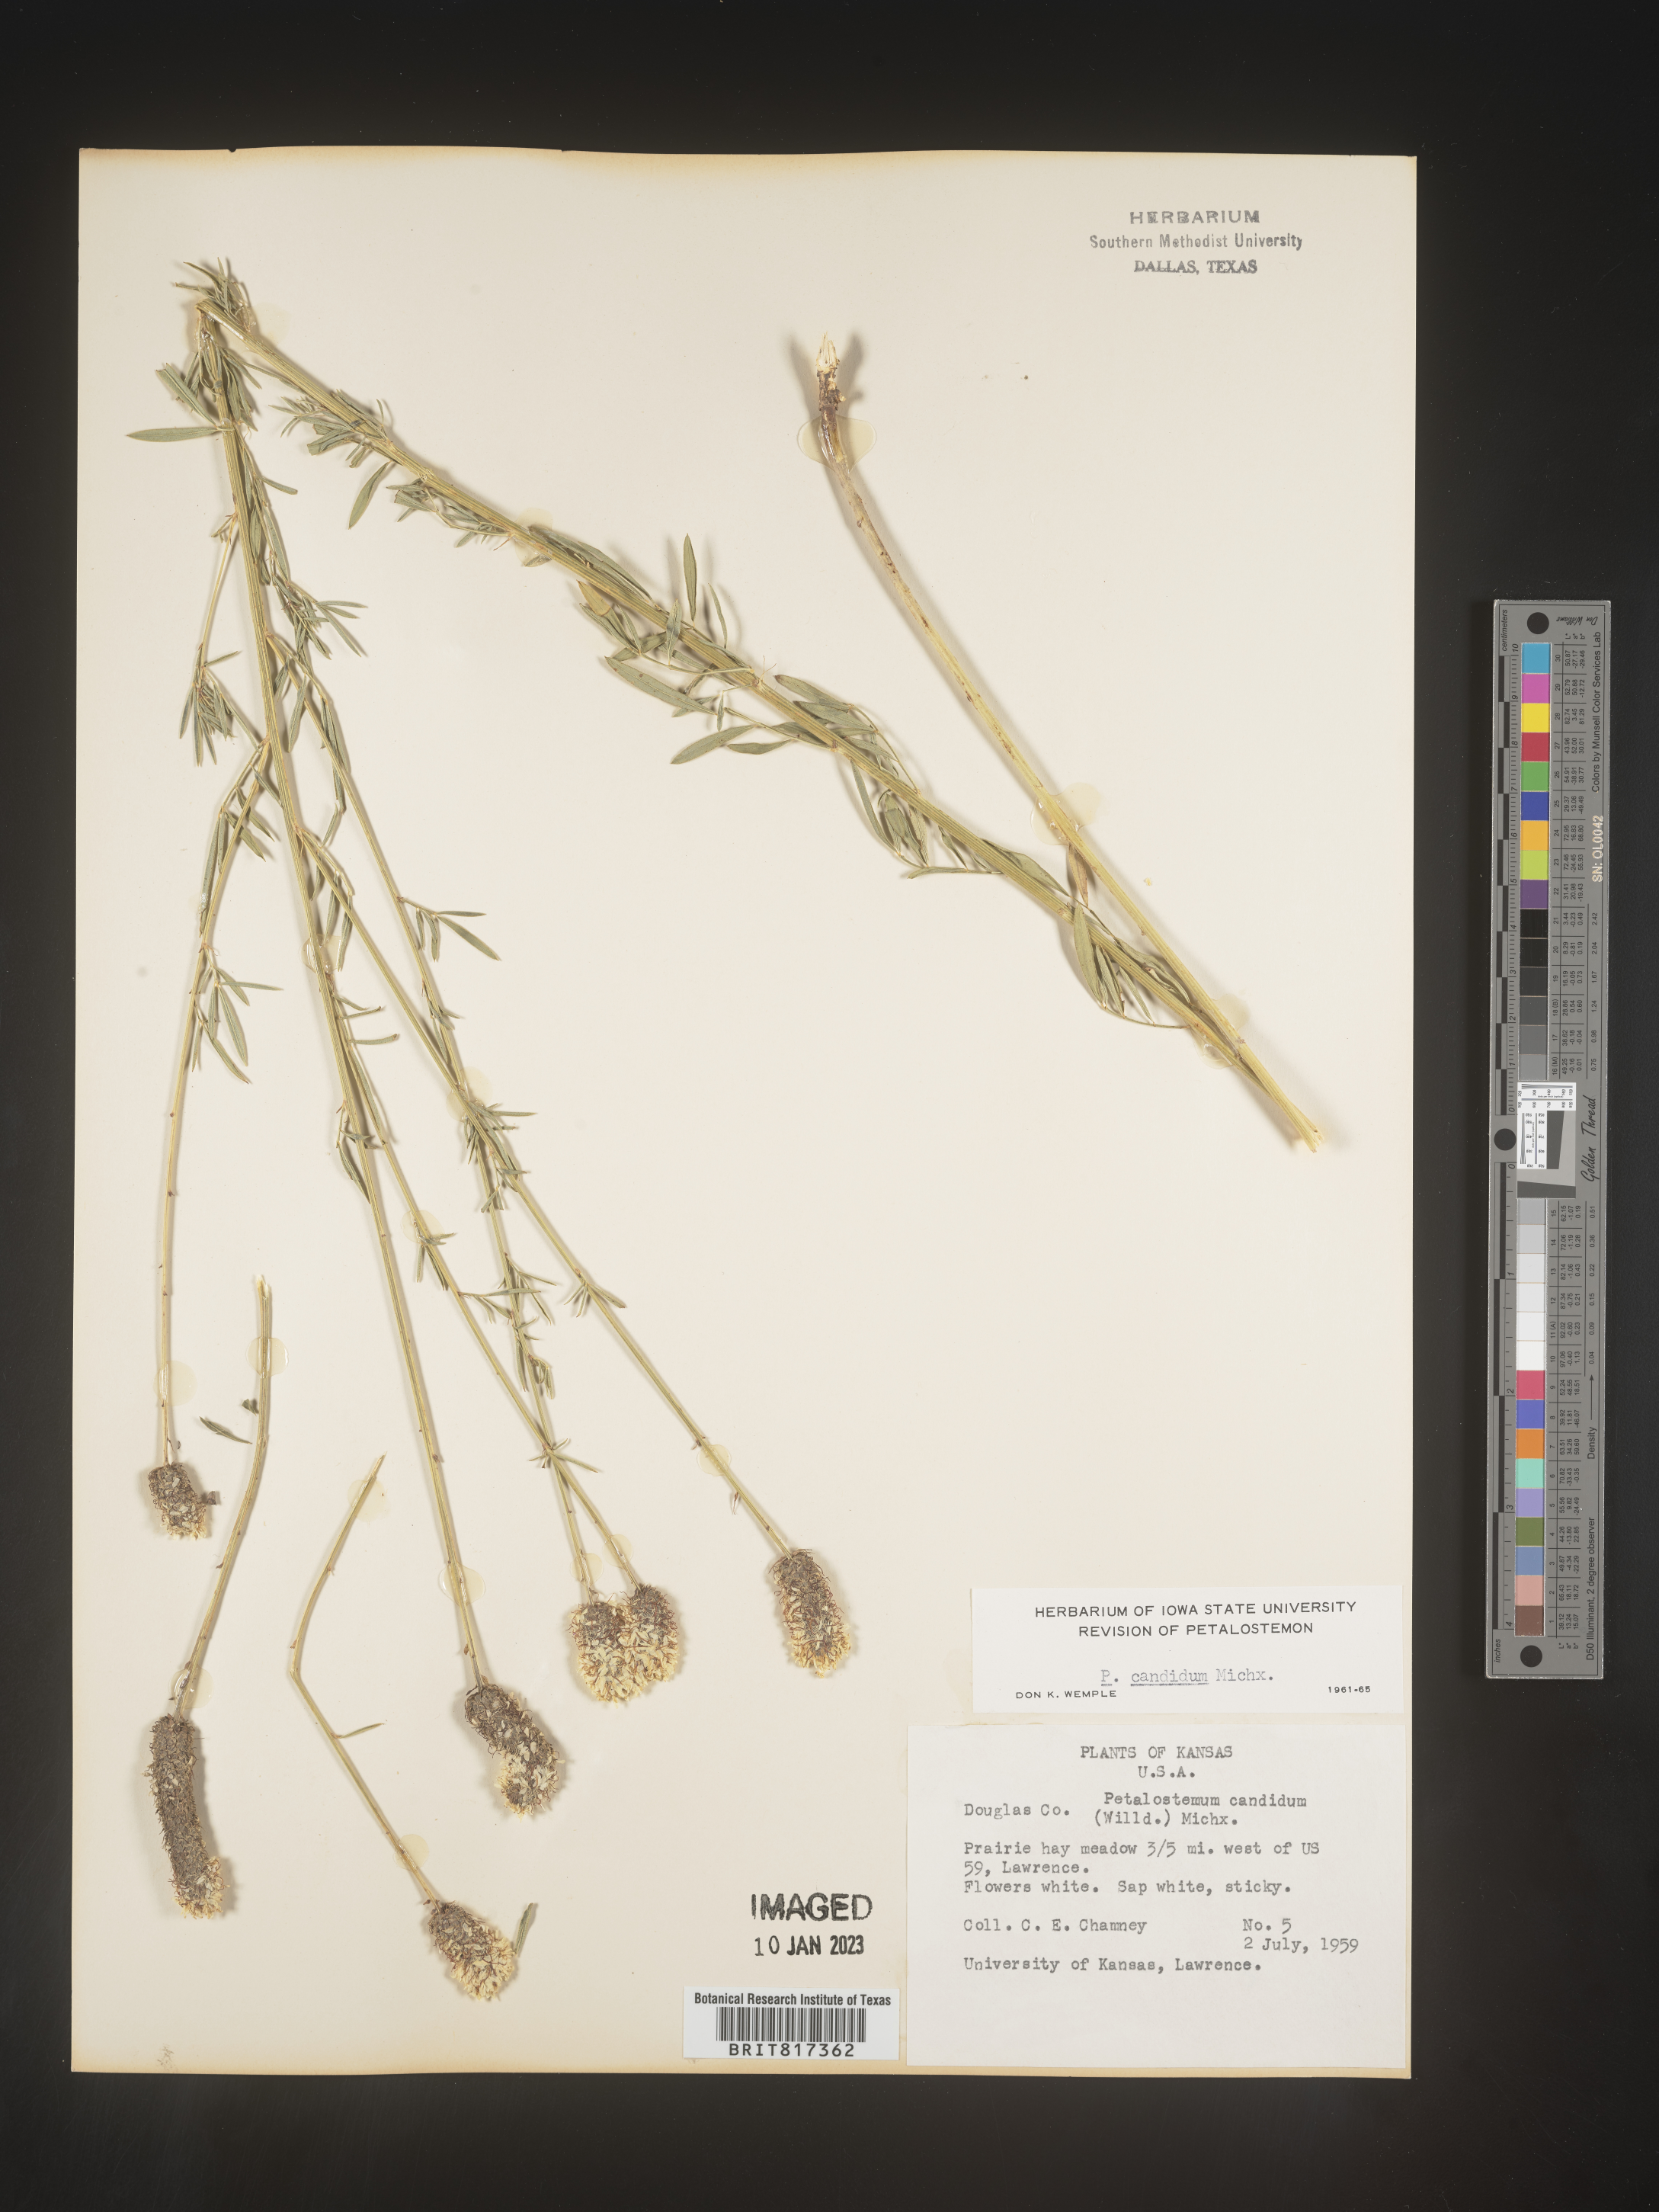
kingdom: Plantae
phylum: Tracheophyta
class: Magnoliopsida
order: Fabales
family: Fabaceae
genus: Dalea
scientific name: Dalea candida
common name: White prairie-clover
